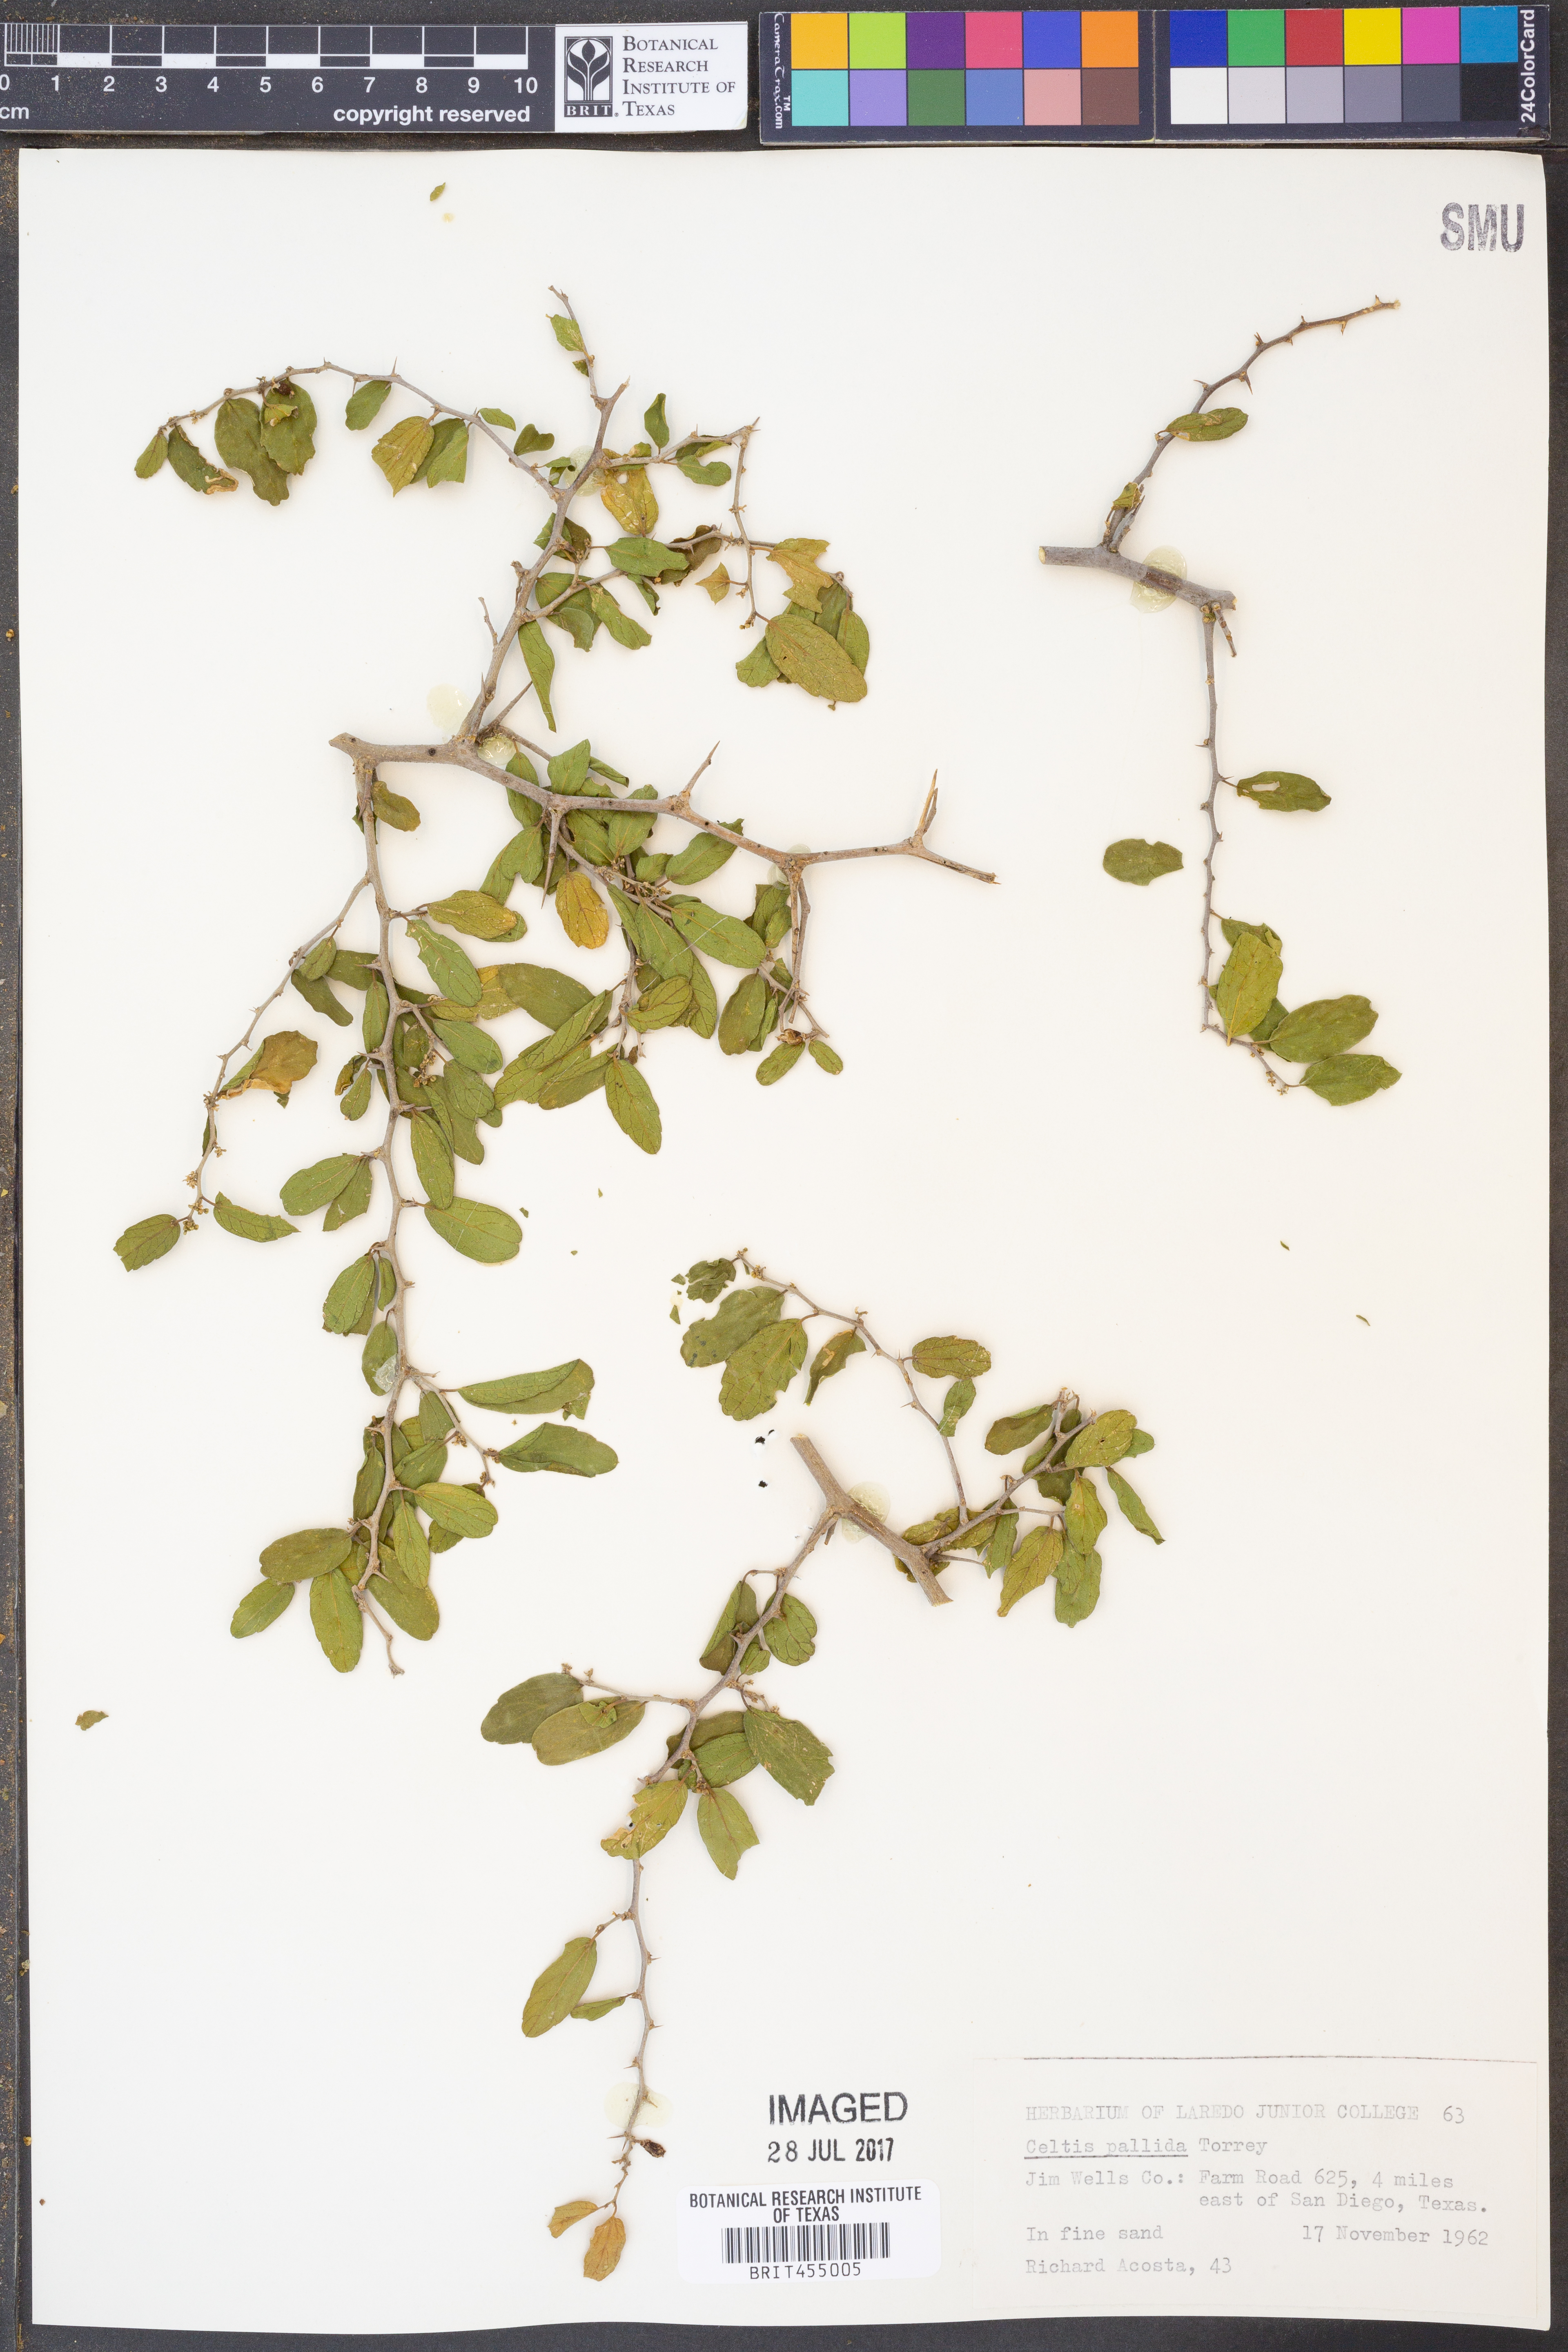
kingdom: Plantae
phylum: Tracheophyta
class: Magnoliopsida
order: Rosales
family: Cannabaceae
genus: Celtis
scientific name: Celtis pallida
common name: Desert hackberry
